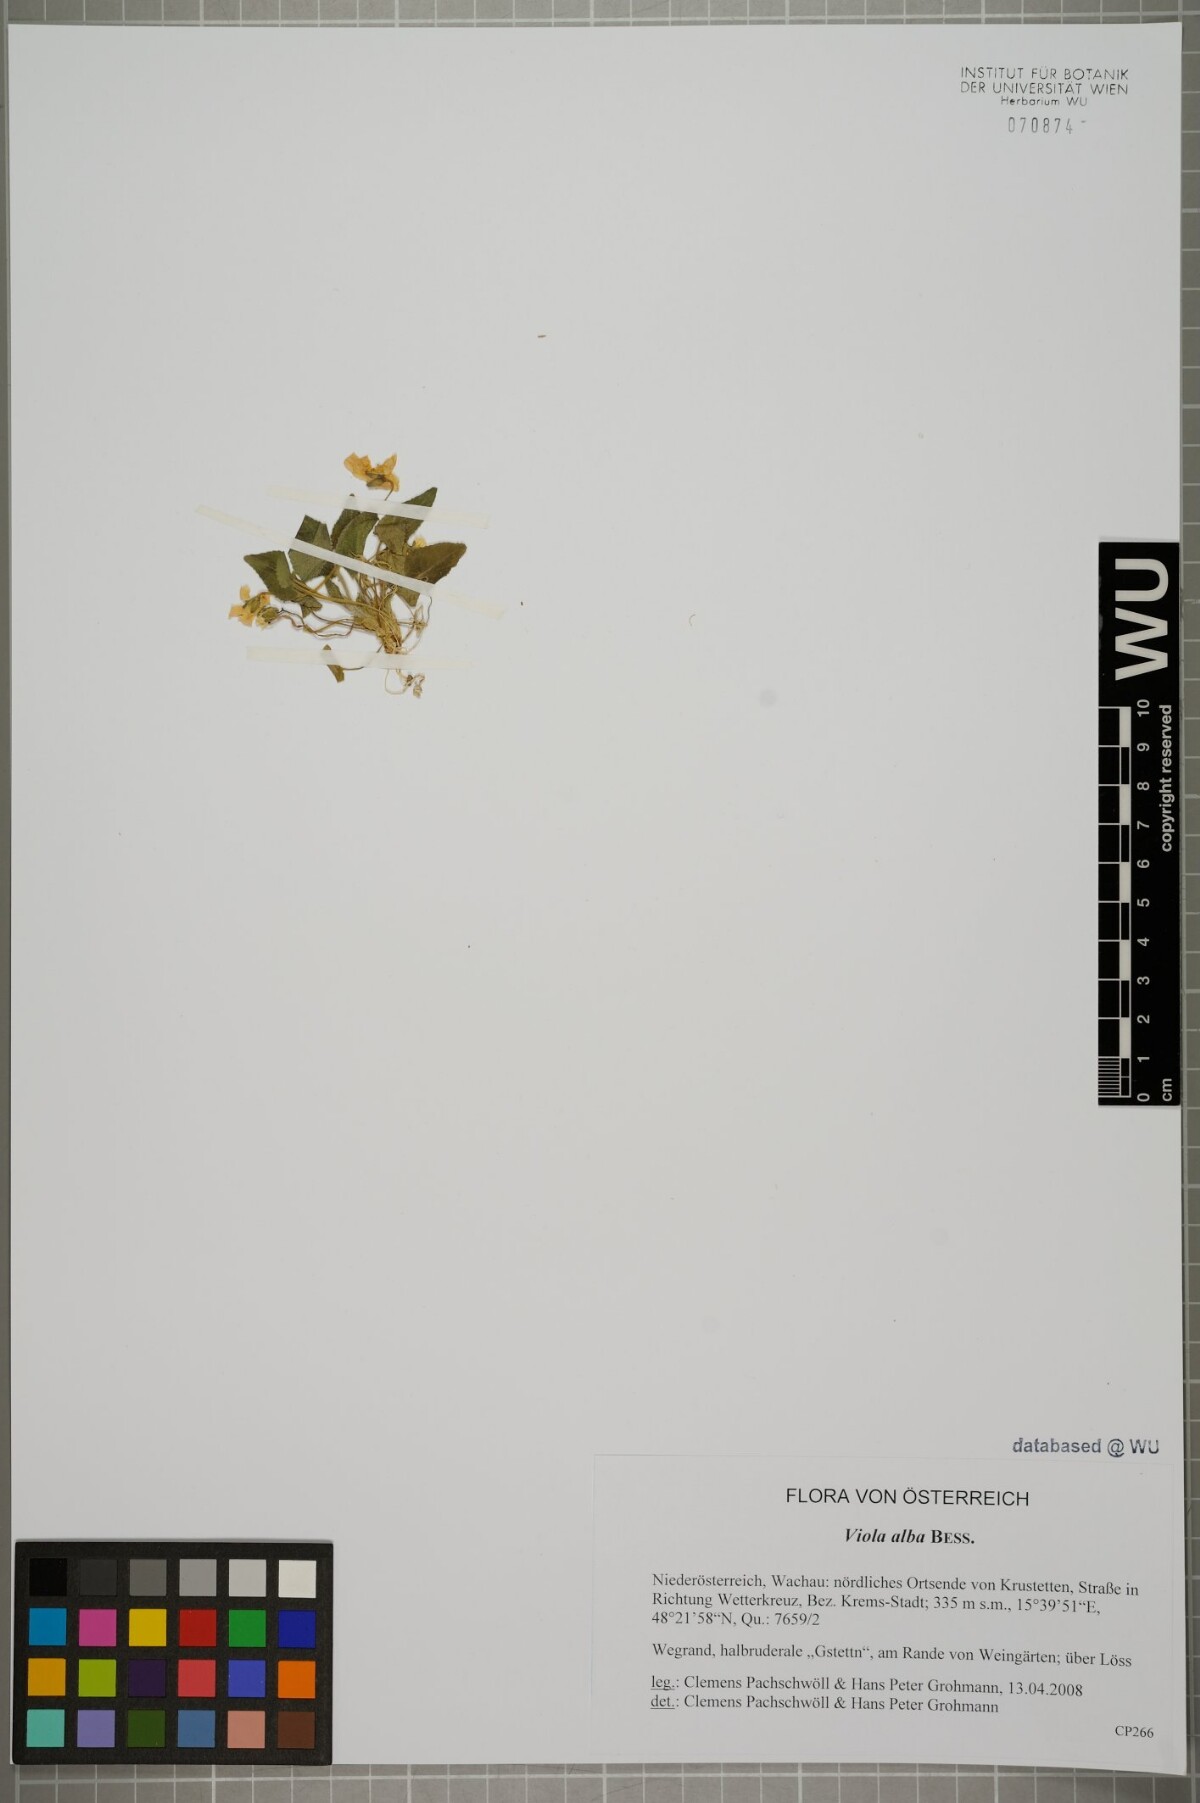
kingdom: Plantae
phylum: Tracheophyta
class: Magnoliopsida
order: Malpighiales
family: Violaceae
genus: Viola
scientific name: Viola alba
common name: White violet
